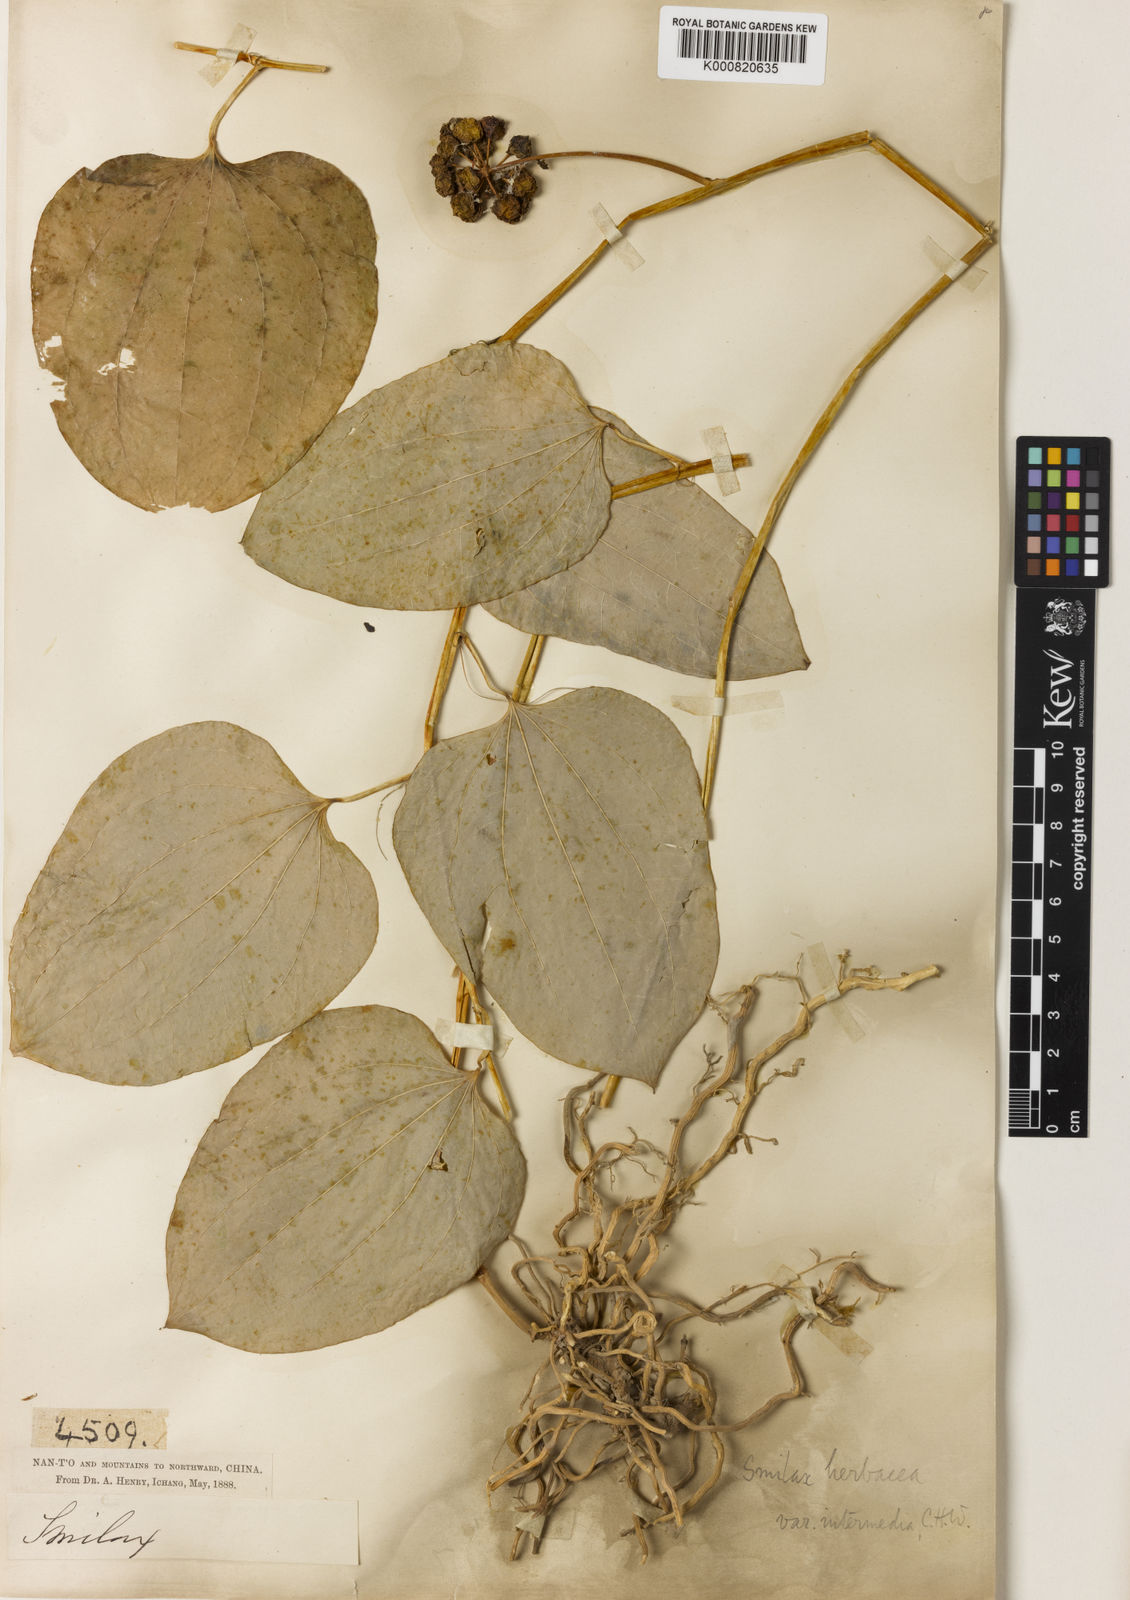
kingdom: Plantae
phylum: Tracheophyta
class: Liliopsida
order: Liliales
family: Smilacaceae
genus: Smilax
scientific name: Smilax nipponica
